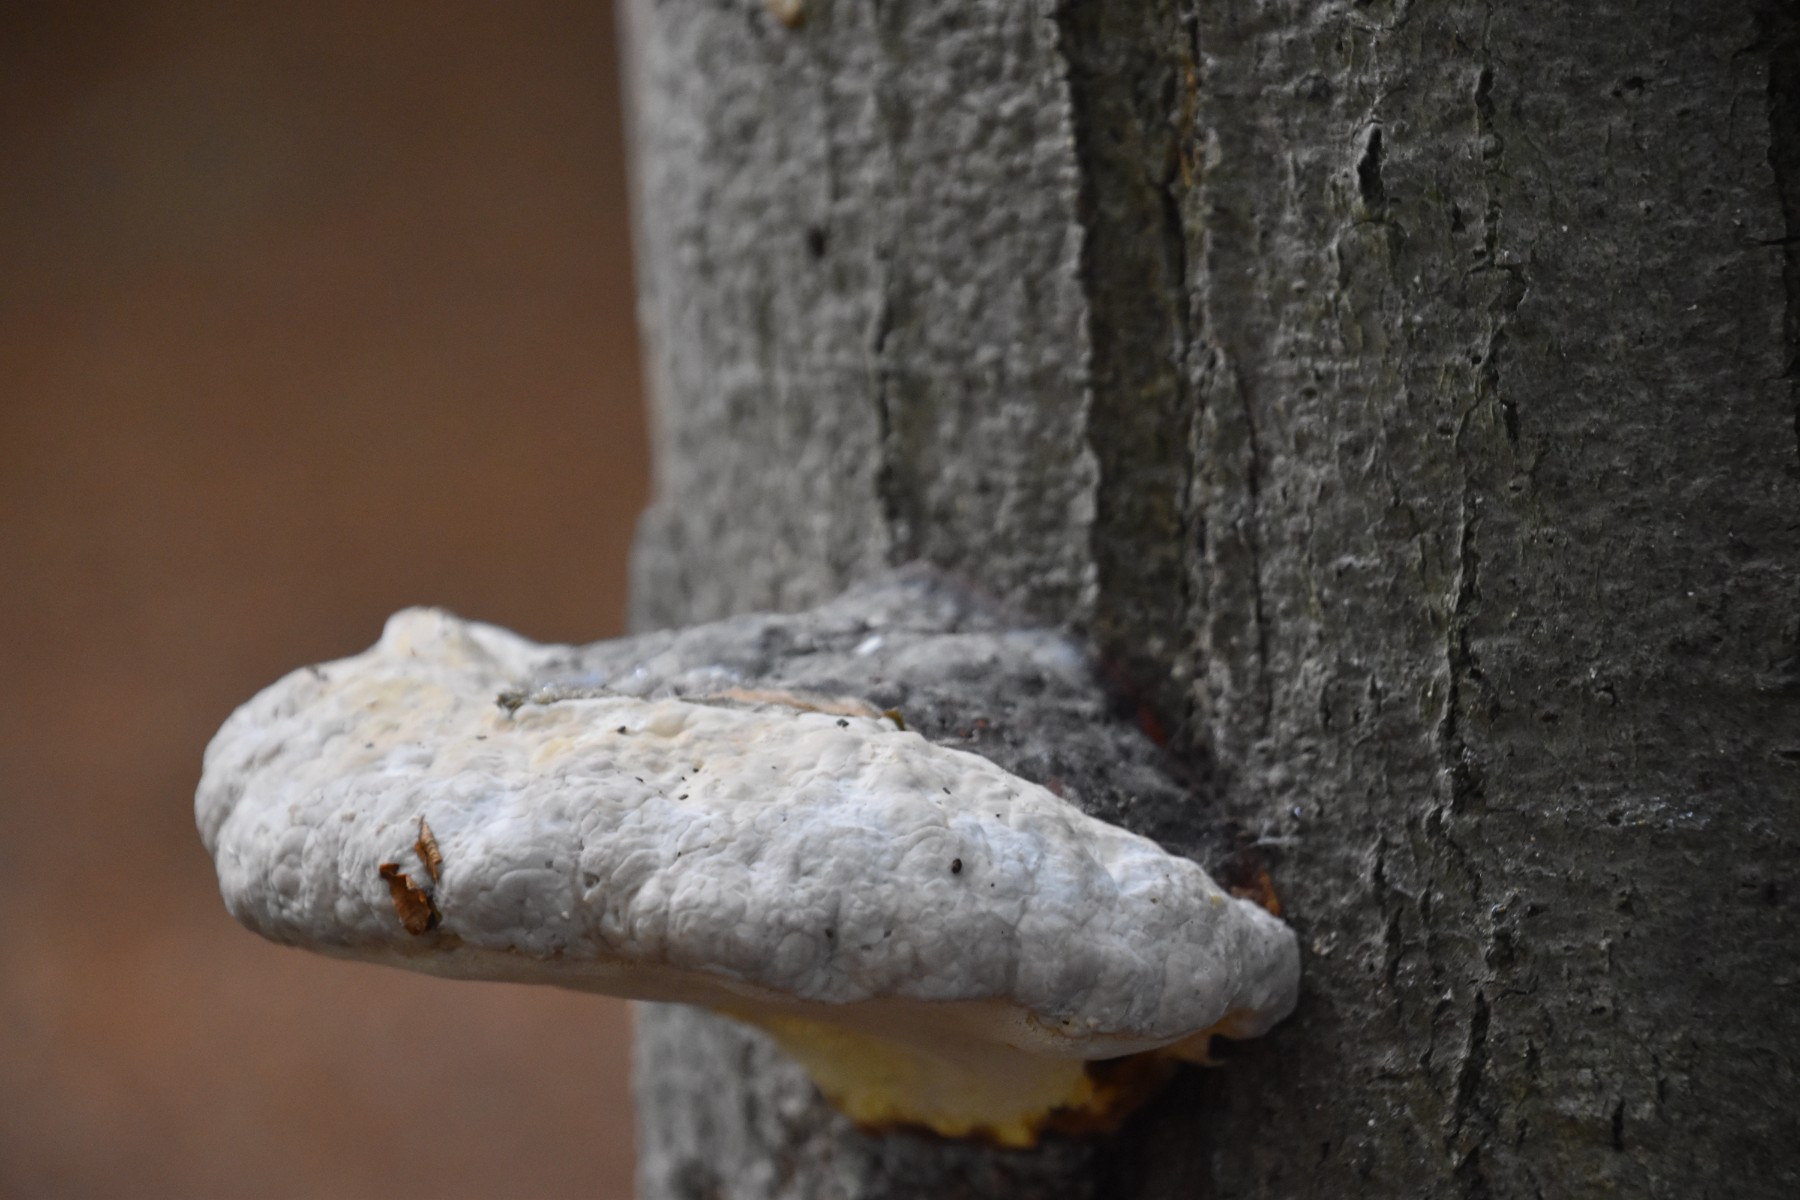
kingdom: Fungi
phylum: Basidiomycota
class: Agaricomycetes
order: Polyporales
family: Polyporaceae
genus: Fomes
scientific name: Fomes fomentarius
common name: tøndersvamp
